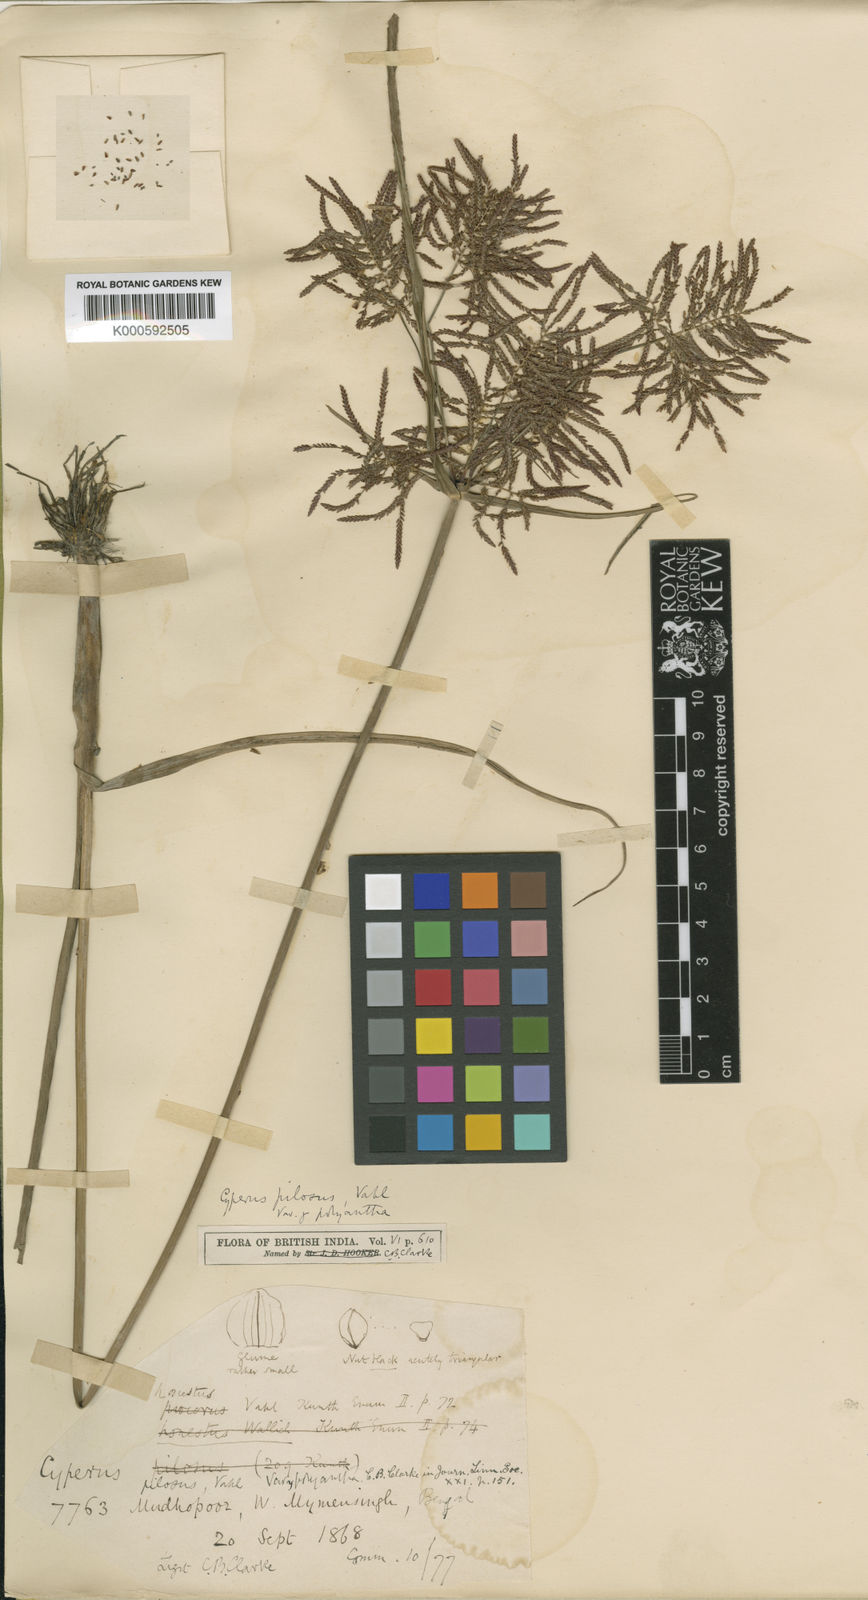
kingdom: Plantae
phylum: Tracheophyta
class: Liliopsida
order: Poales
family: Cyperaceae
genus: Cyperus
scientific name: Cyperus pilosus
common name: Fuzzy flatsedge
